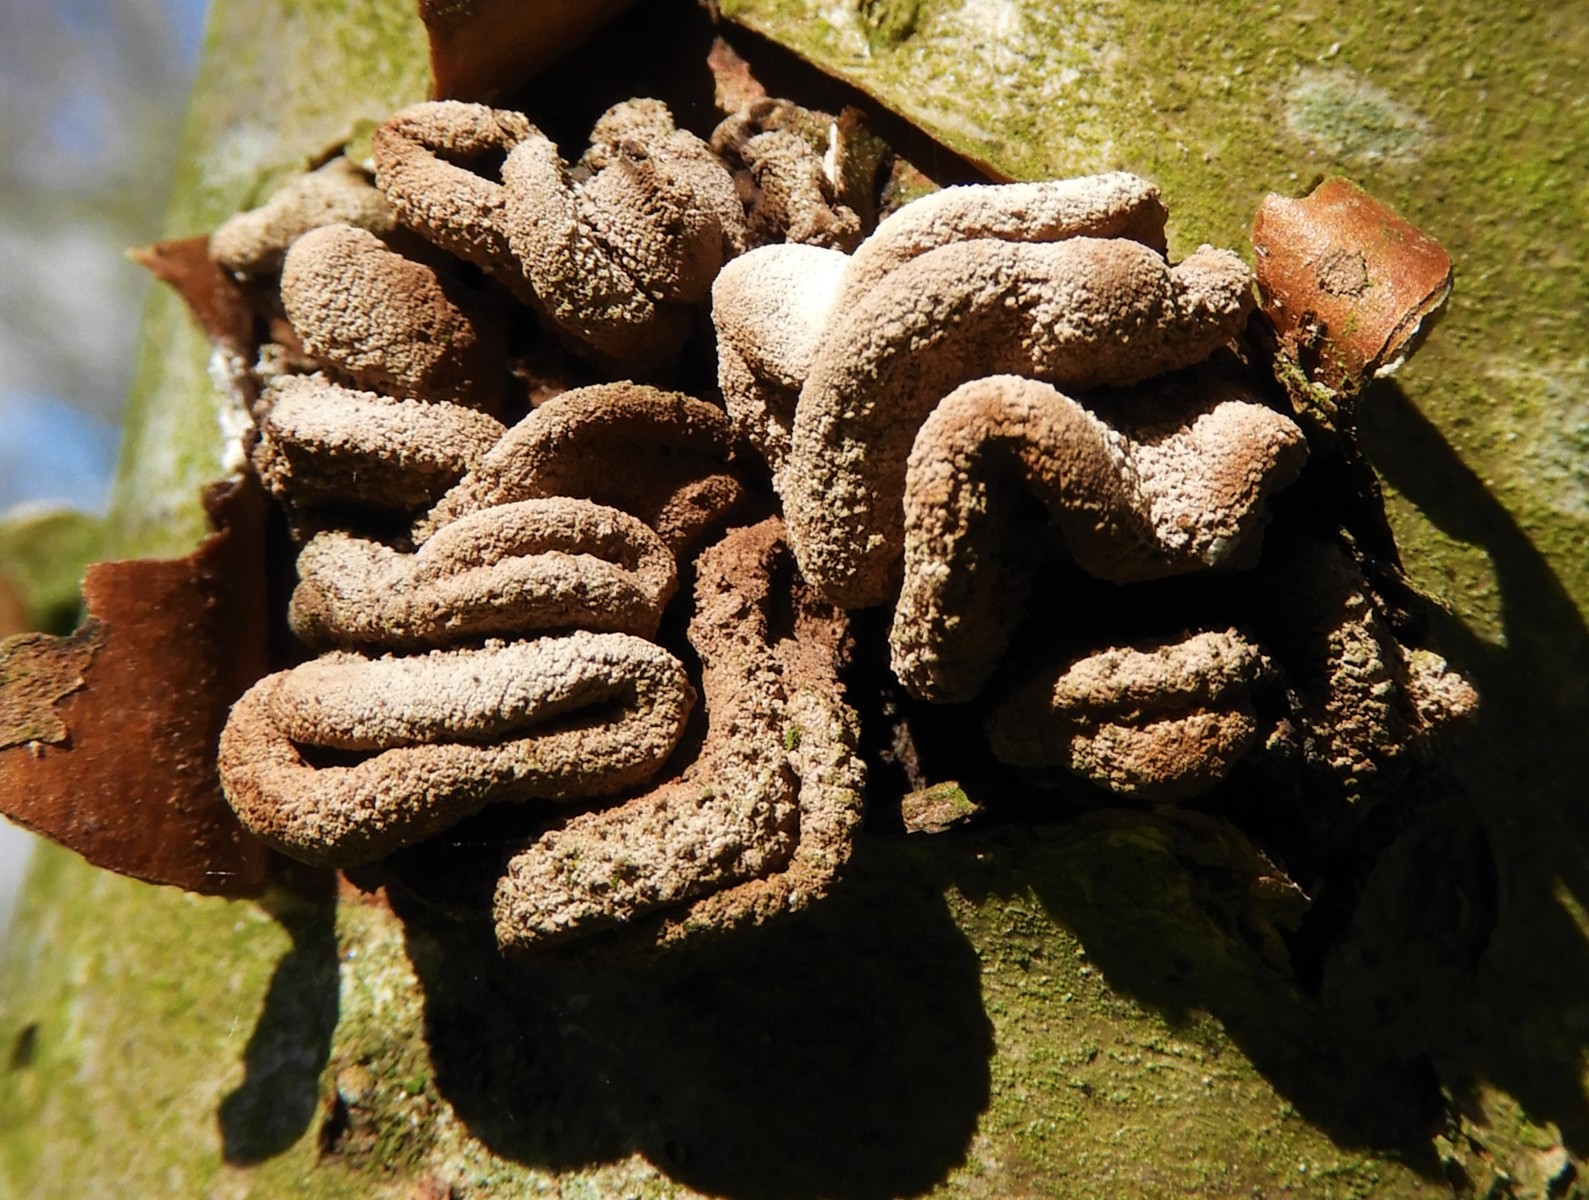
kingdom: Fungi
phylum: Ascomycota
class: Leotiomycetes
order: Helotiales
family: Cenangiaceae
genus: Encoelia
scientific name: Encoelia furfuracea
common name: hassel-læderskive
